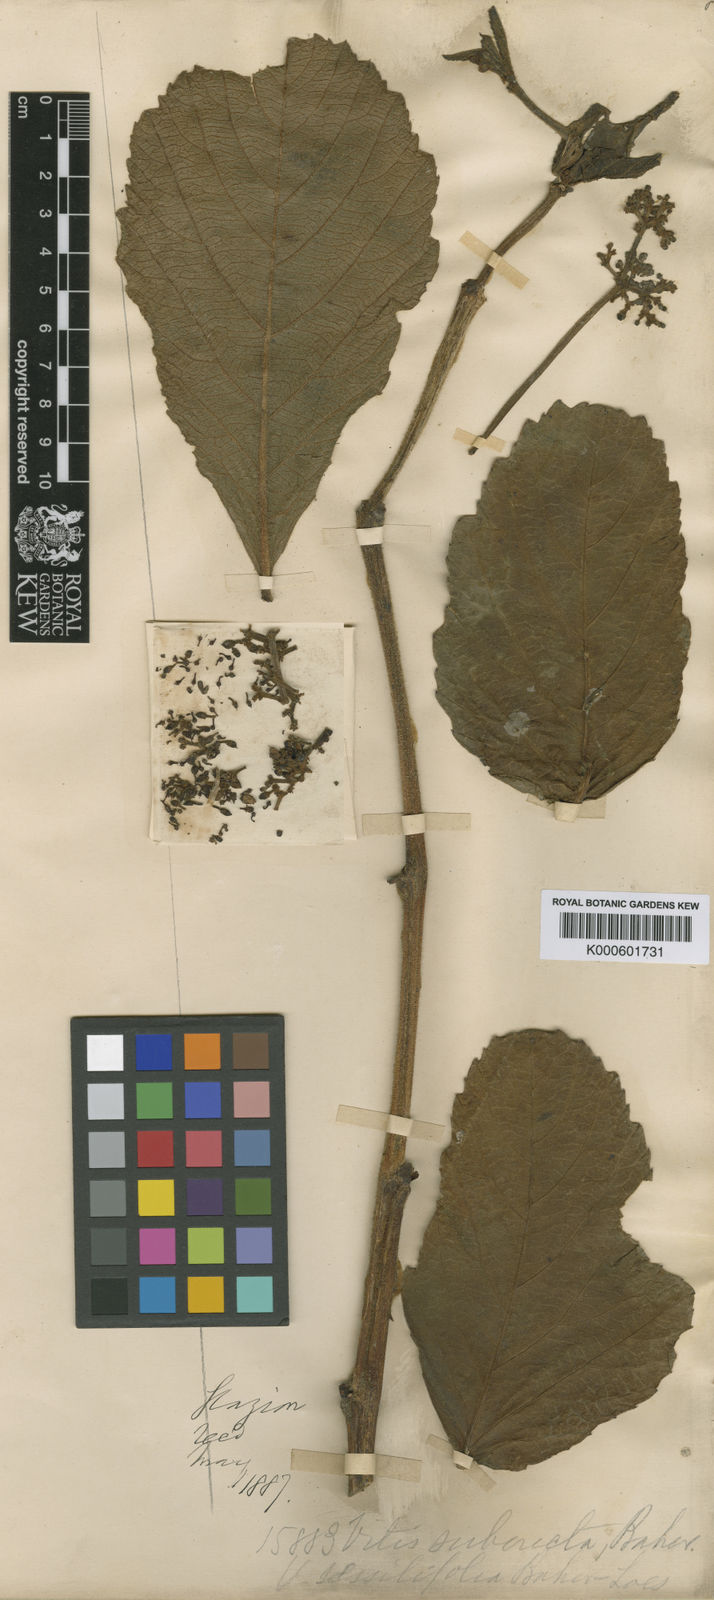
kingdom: Plantae
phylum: Tracheophyta
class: Magnoliopsida
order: Vitales
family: Vitaceae
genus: Cissus
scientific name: Cissus inundata
